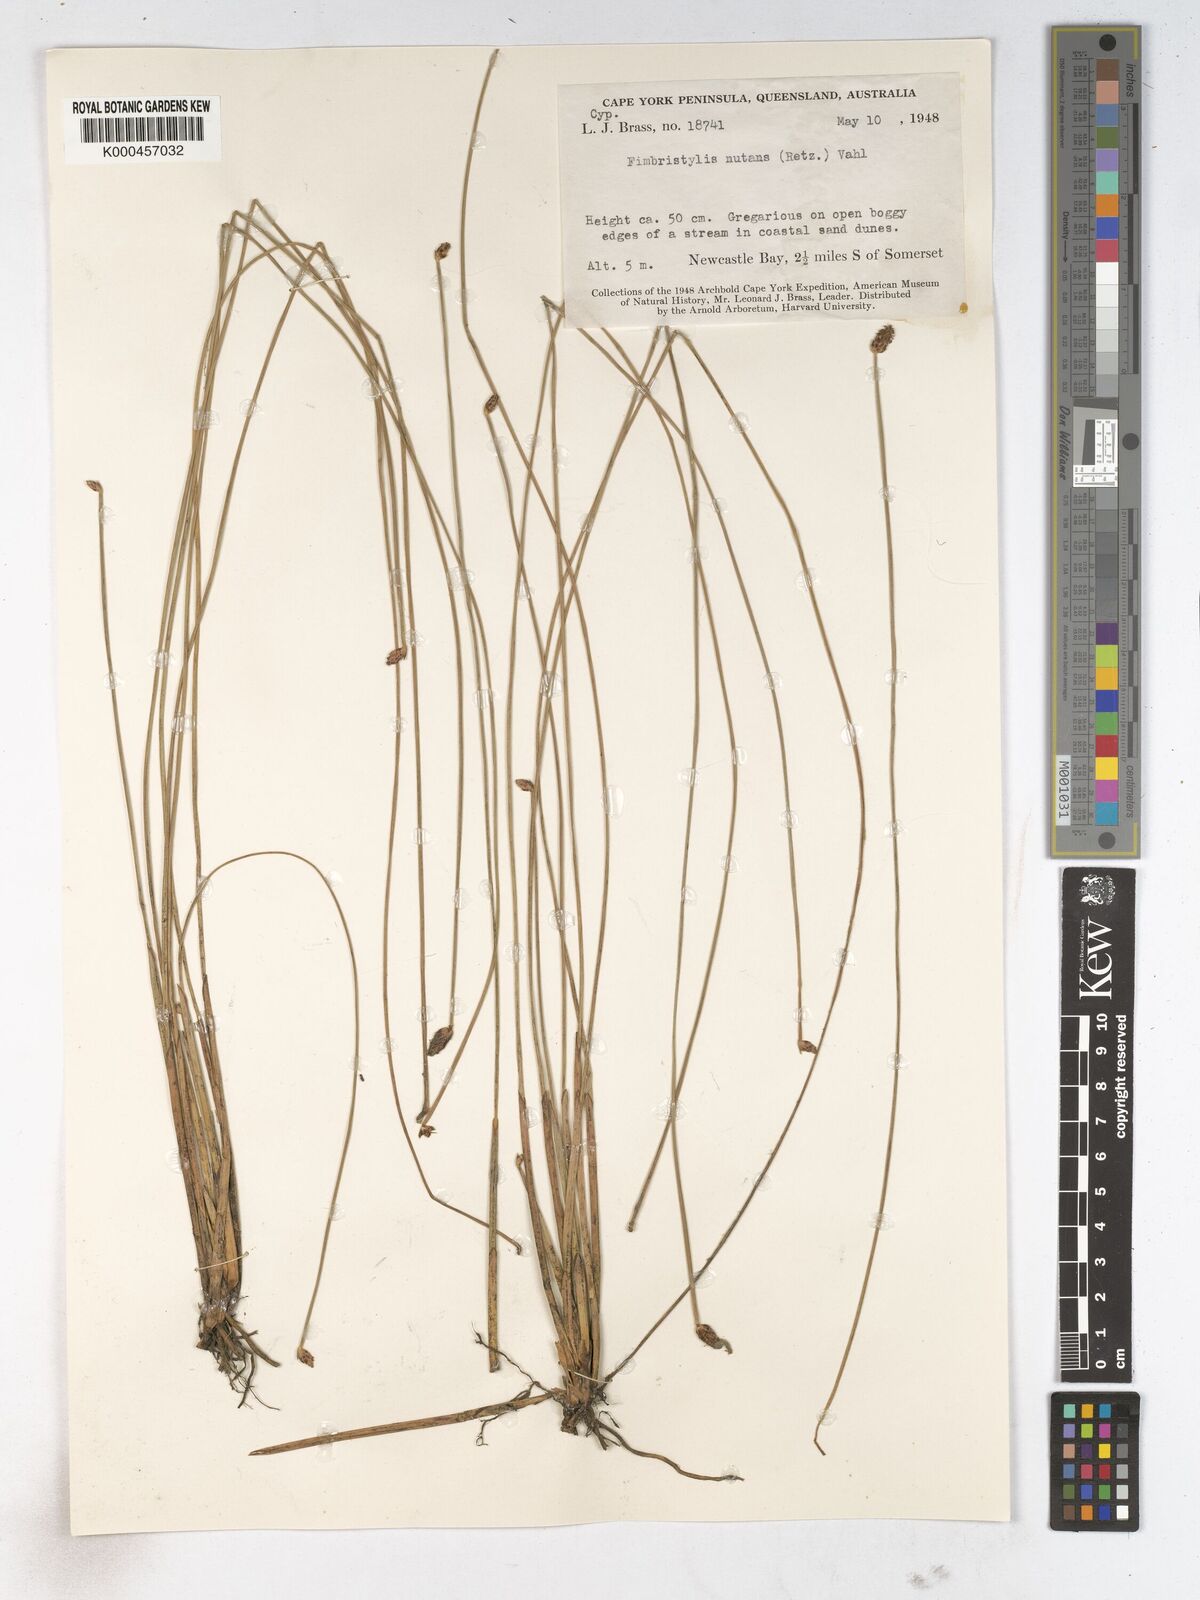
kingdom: Plantae
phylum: Tracheophyta
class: Liliopsida
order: Poales
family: Cyperaceae
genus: Fimbristylis
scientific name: Fimbristylis nutans
